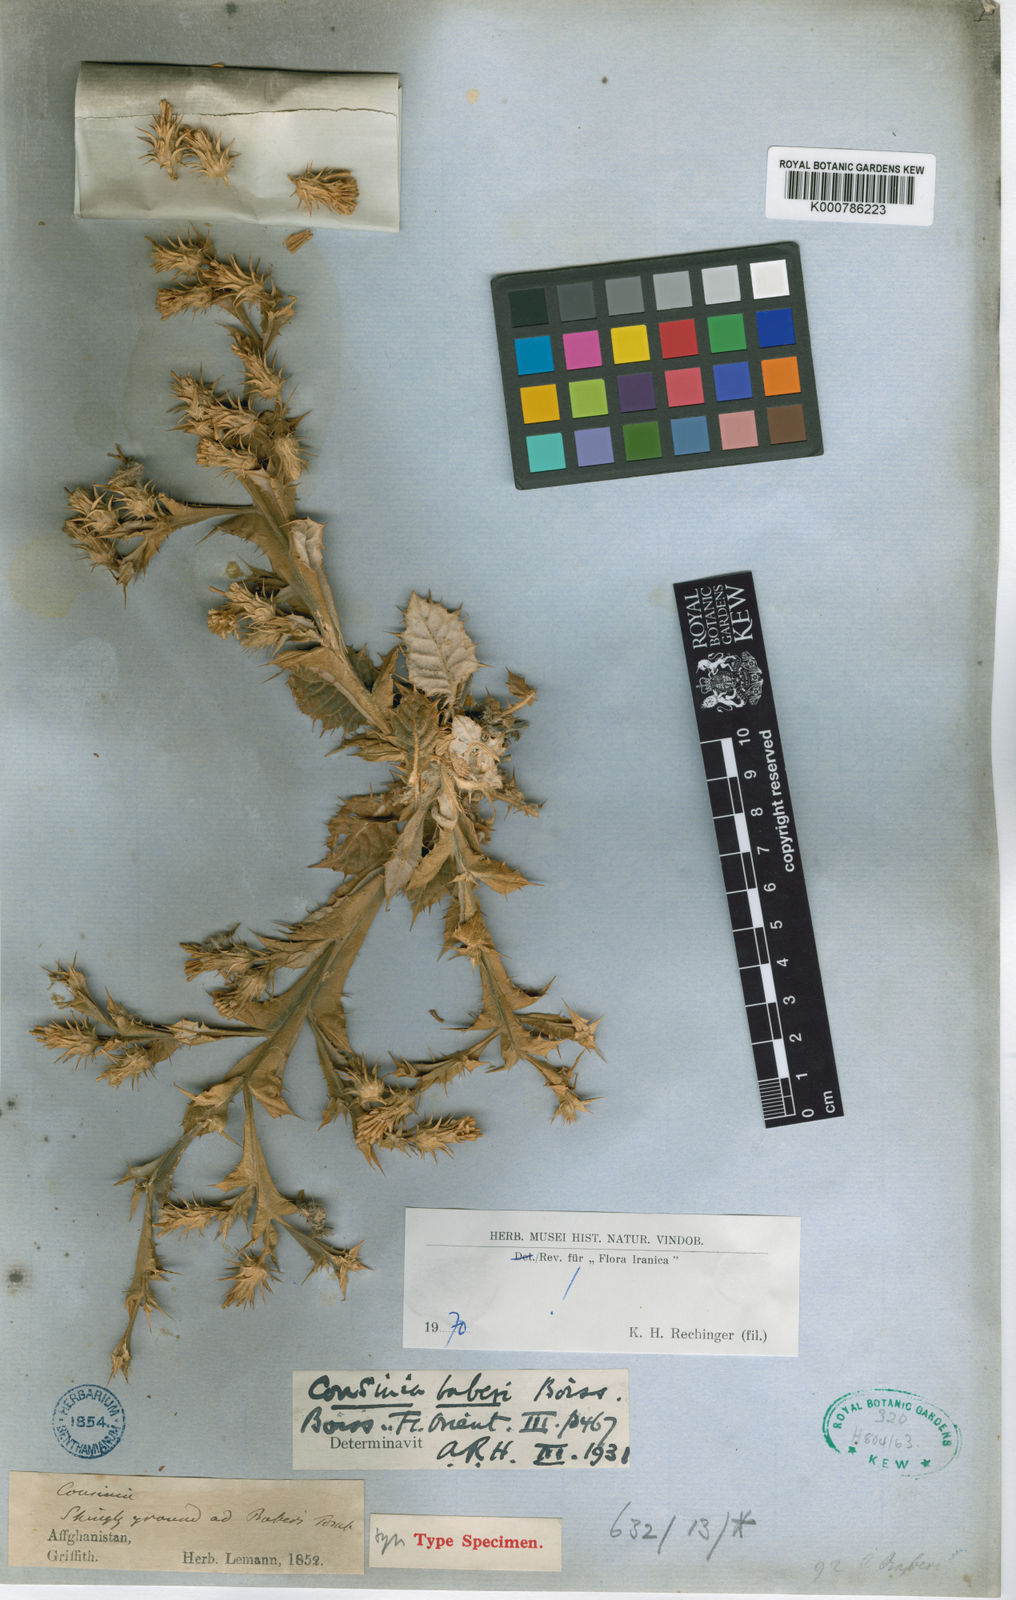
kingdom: Plantae
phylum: Tracheophyta
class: Magnoliopsida
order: Asterales
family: Asteraceae
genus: Cousinia
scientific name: Cousinia baberi
